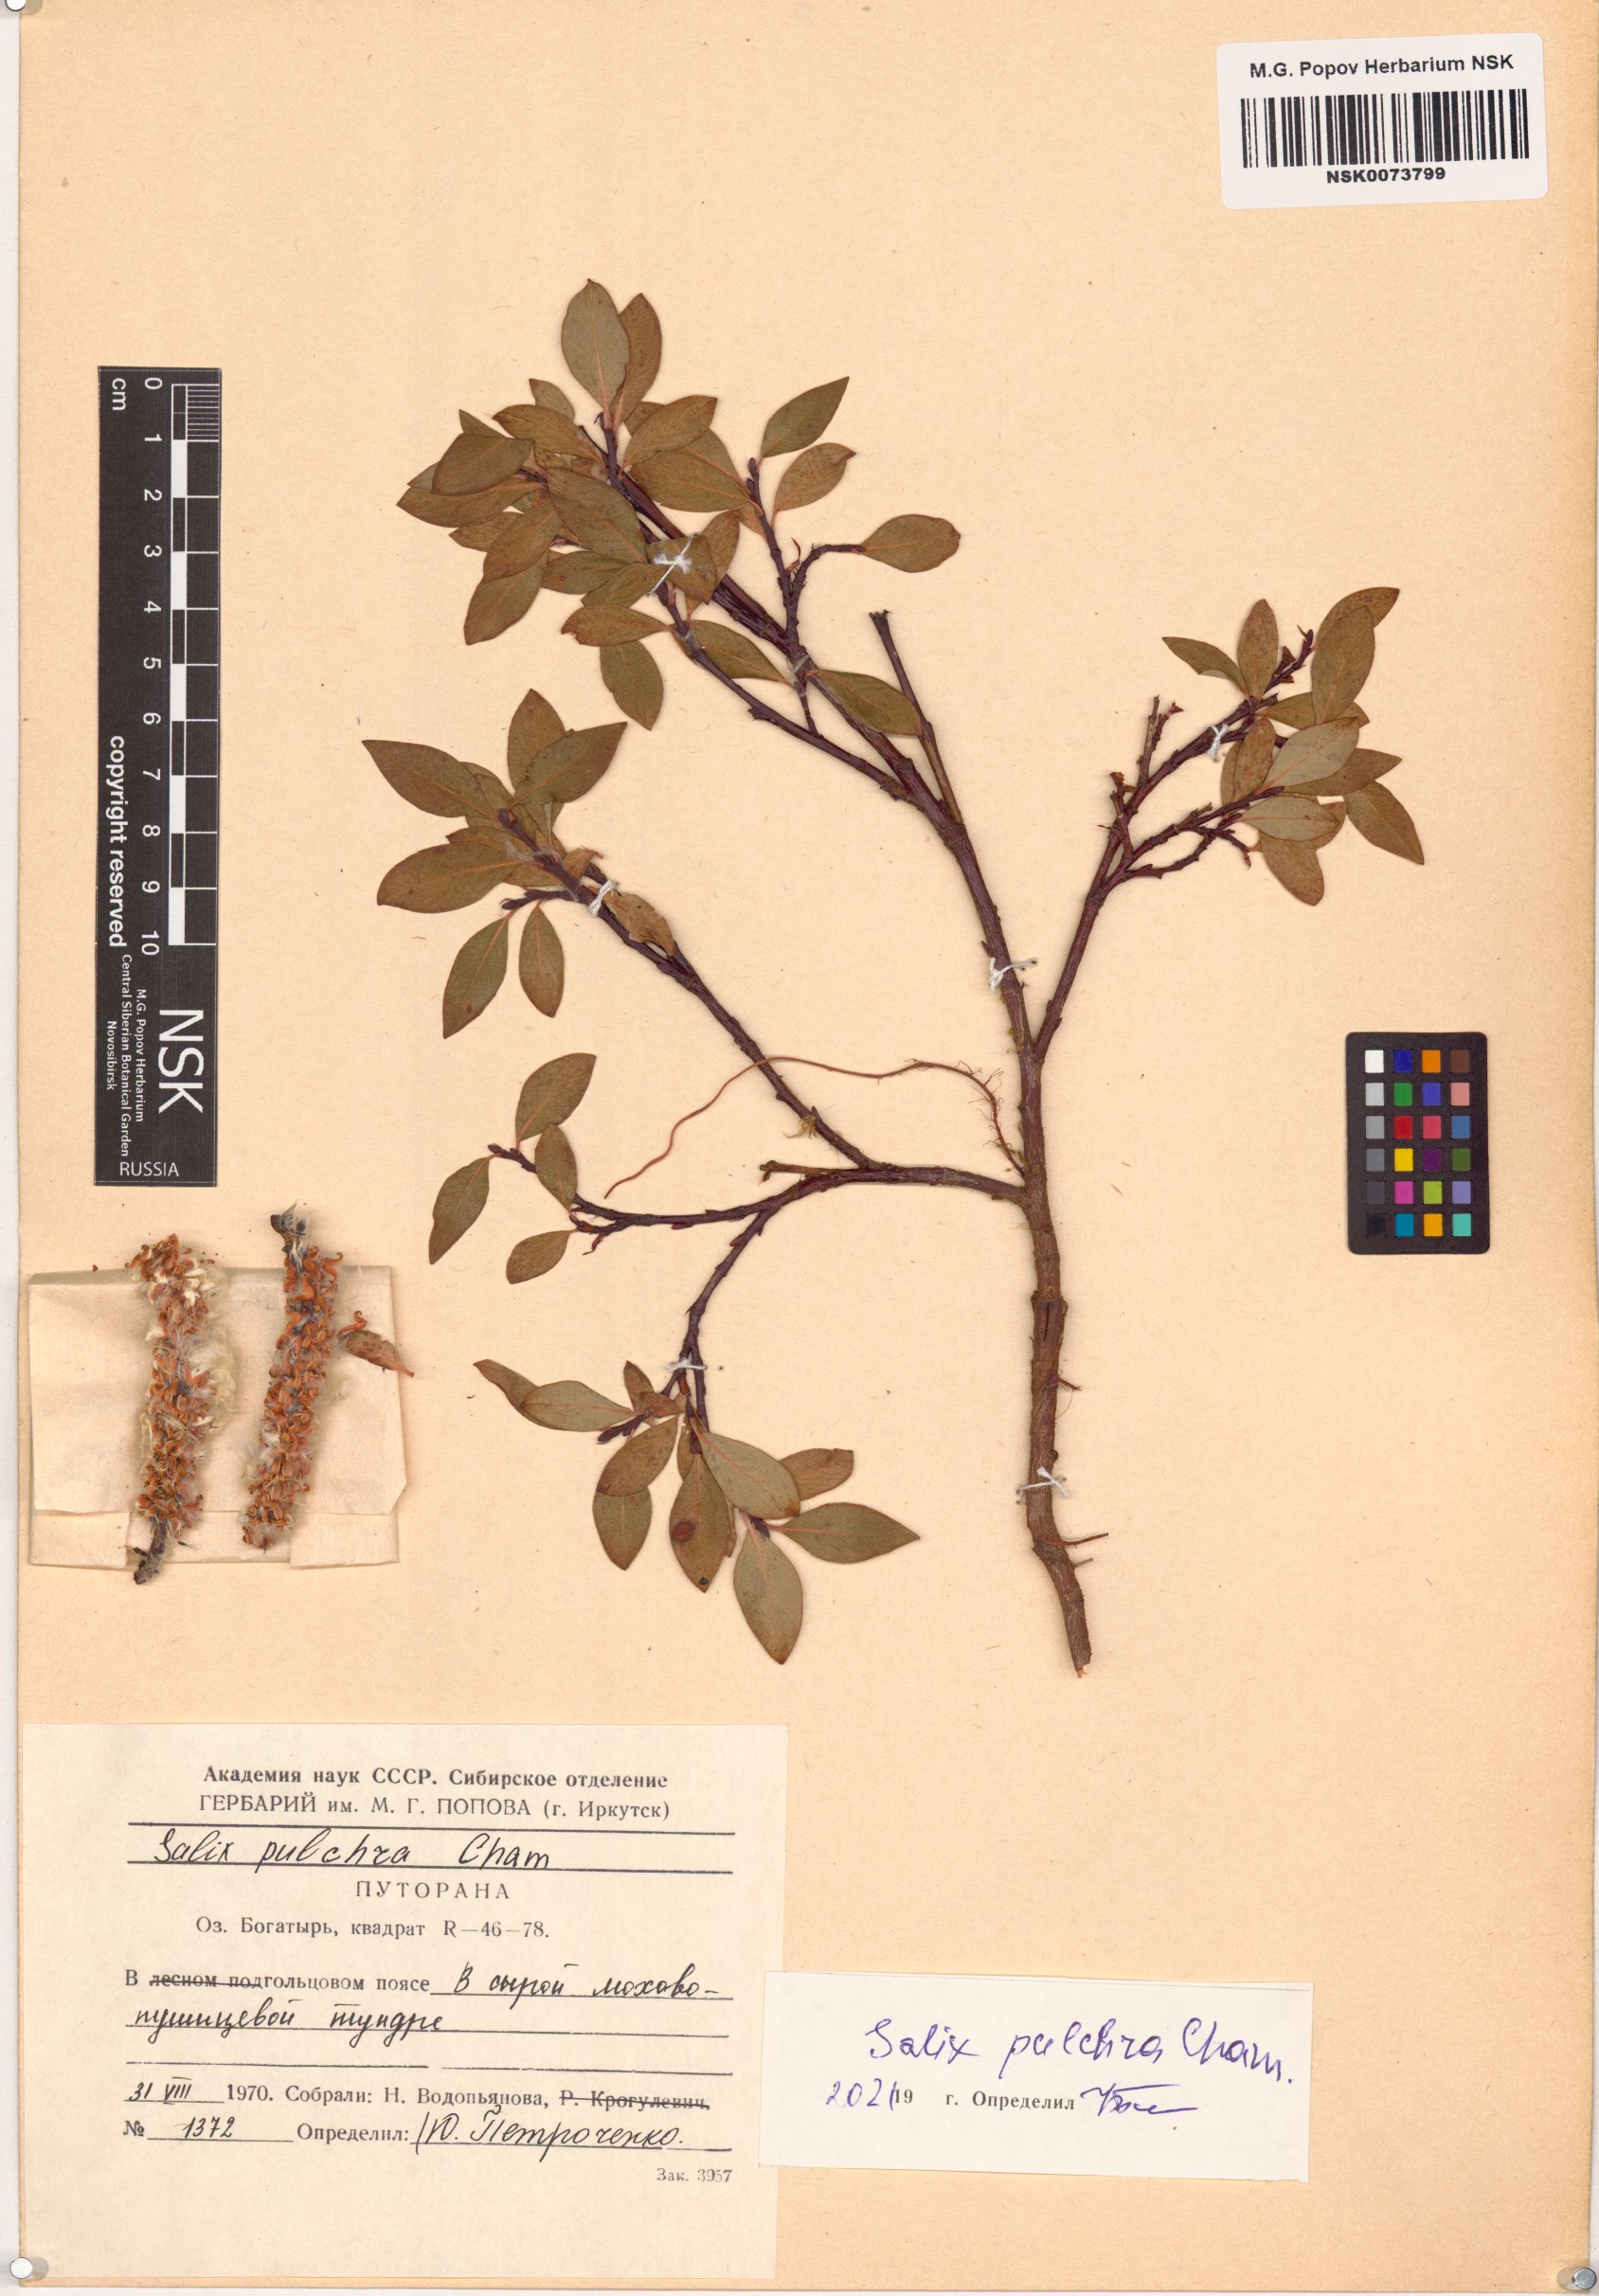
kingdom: Plantae
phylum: Tracheophyta
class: Magnoliopsida
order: Malpighiales
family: Salicaceae
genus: Salix
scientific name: Salix pulchra
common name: Diamond-leaved willow
